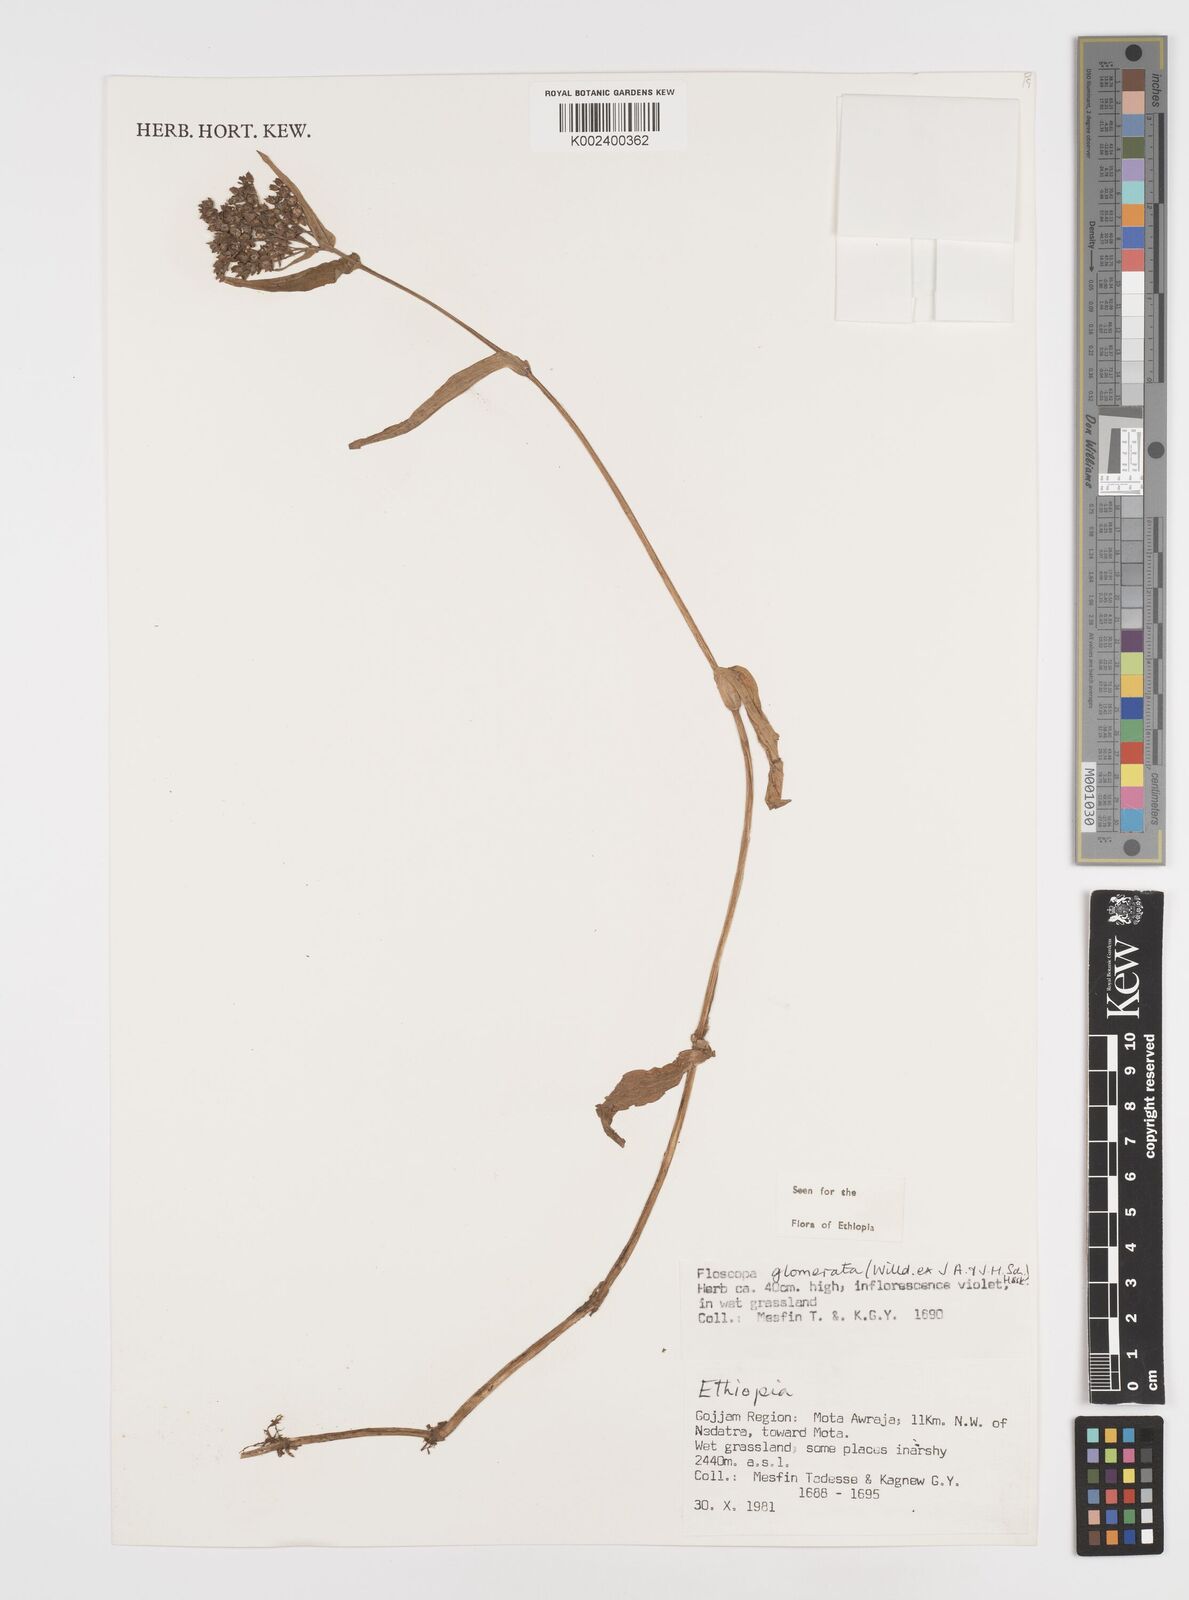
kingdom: Plantae
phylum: Tracheophyta
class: Liliopsida
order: Commelinales
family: Commelinaceae
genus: Floscopa
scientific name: Floscopa glomerata
